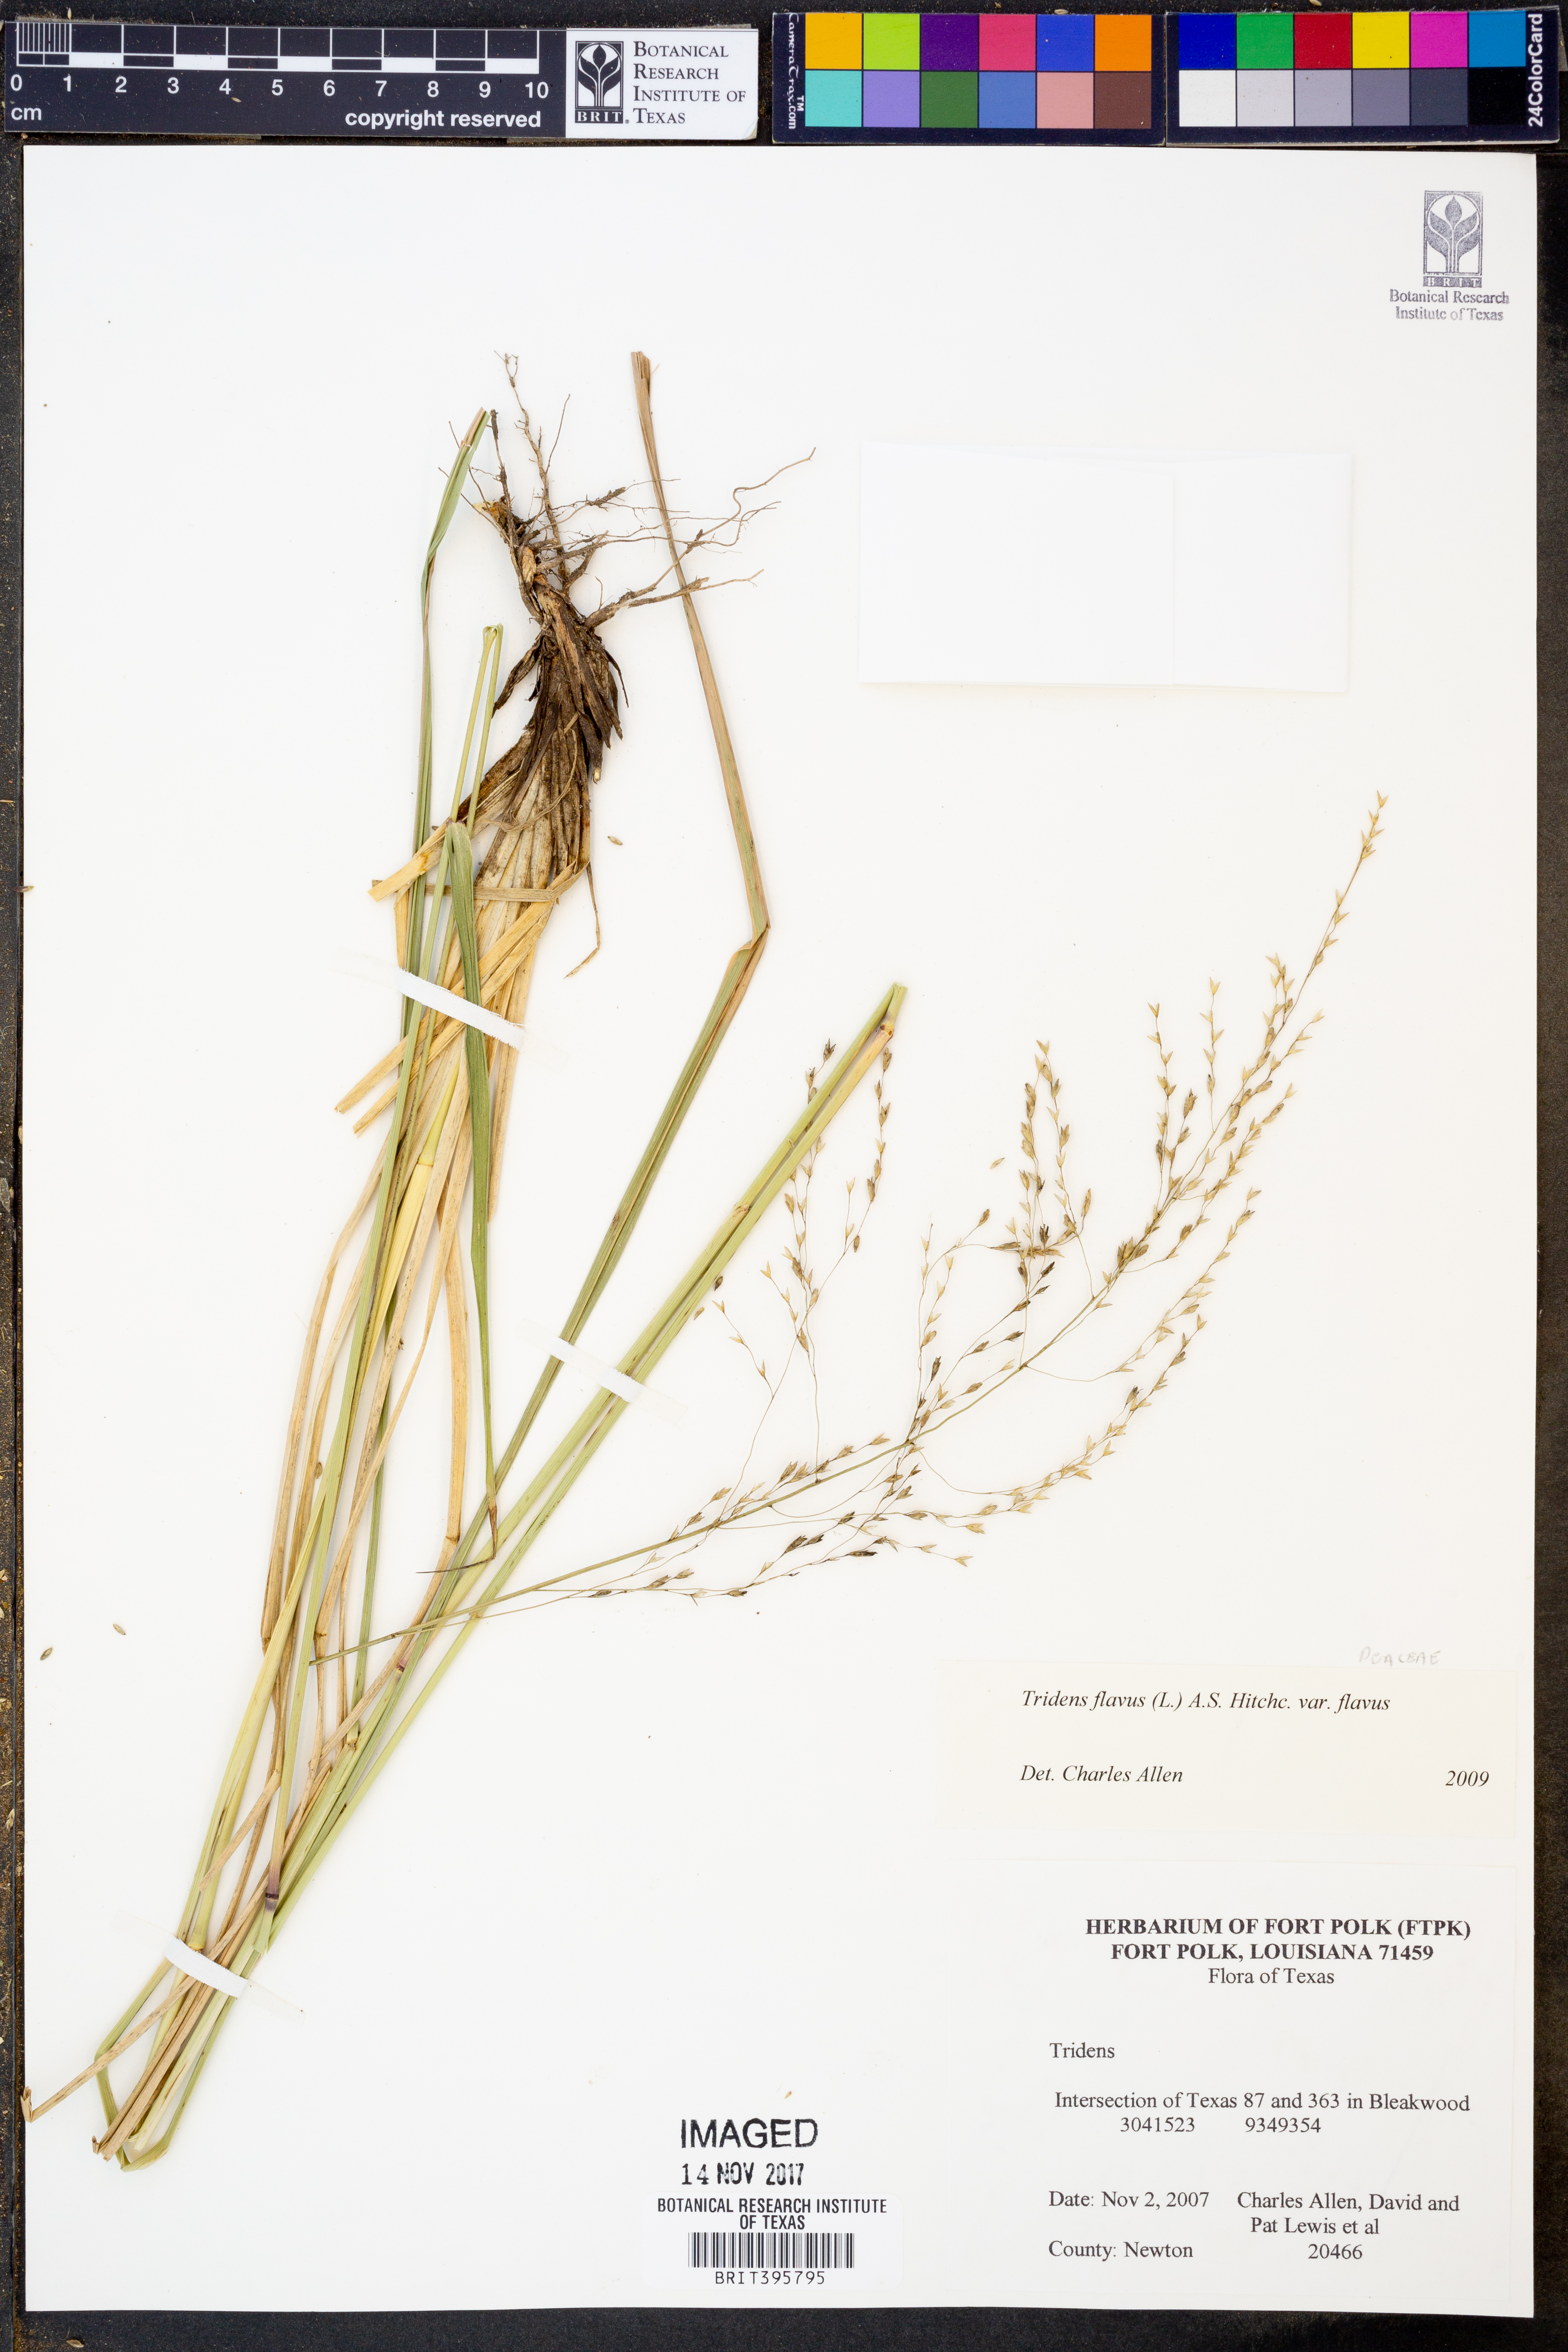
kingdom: Plantae
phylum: Tracheophyta
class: Liliopsida
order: Poales
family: Poaceae
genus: Tridens
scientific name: Tridens flavus
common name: Purpletop
